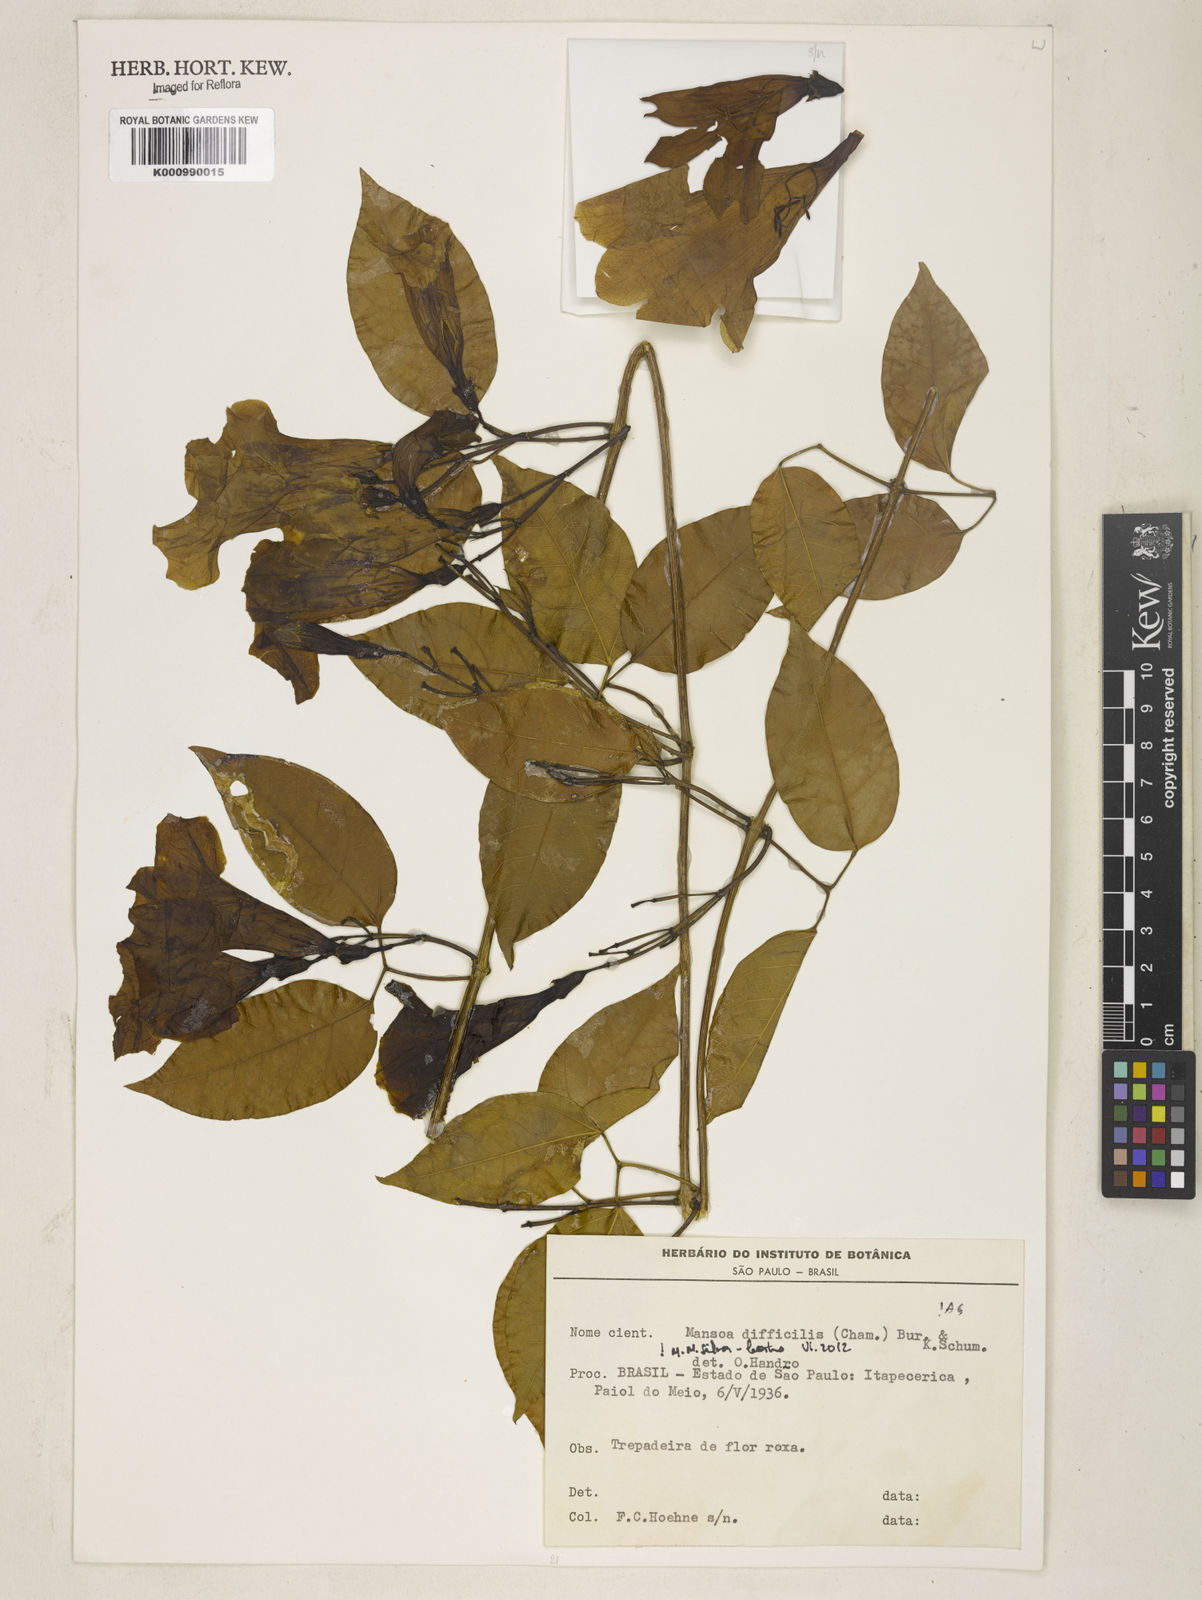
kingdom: Plantae
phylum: Tracheophyta
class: Magnoliopsida
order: Lamiales
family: Bignoniaceae
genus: Mansoa
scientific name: Mansoa difficilis
